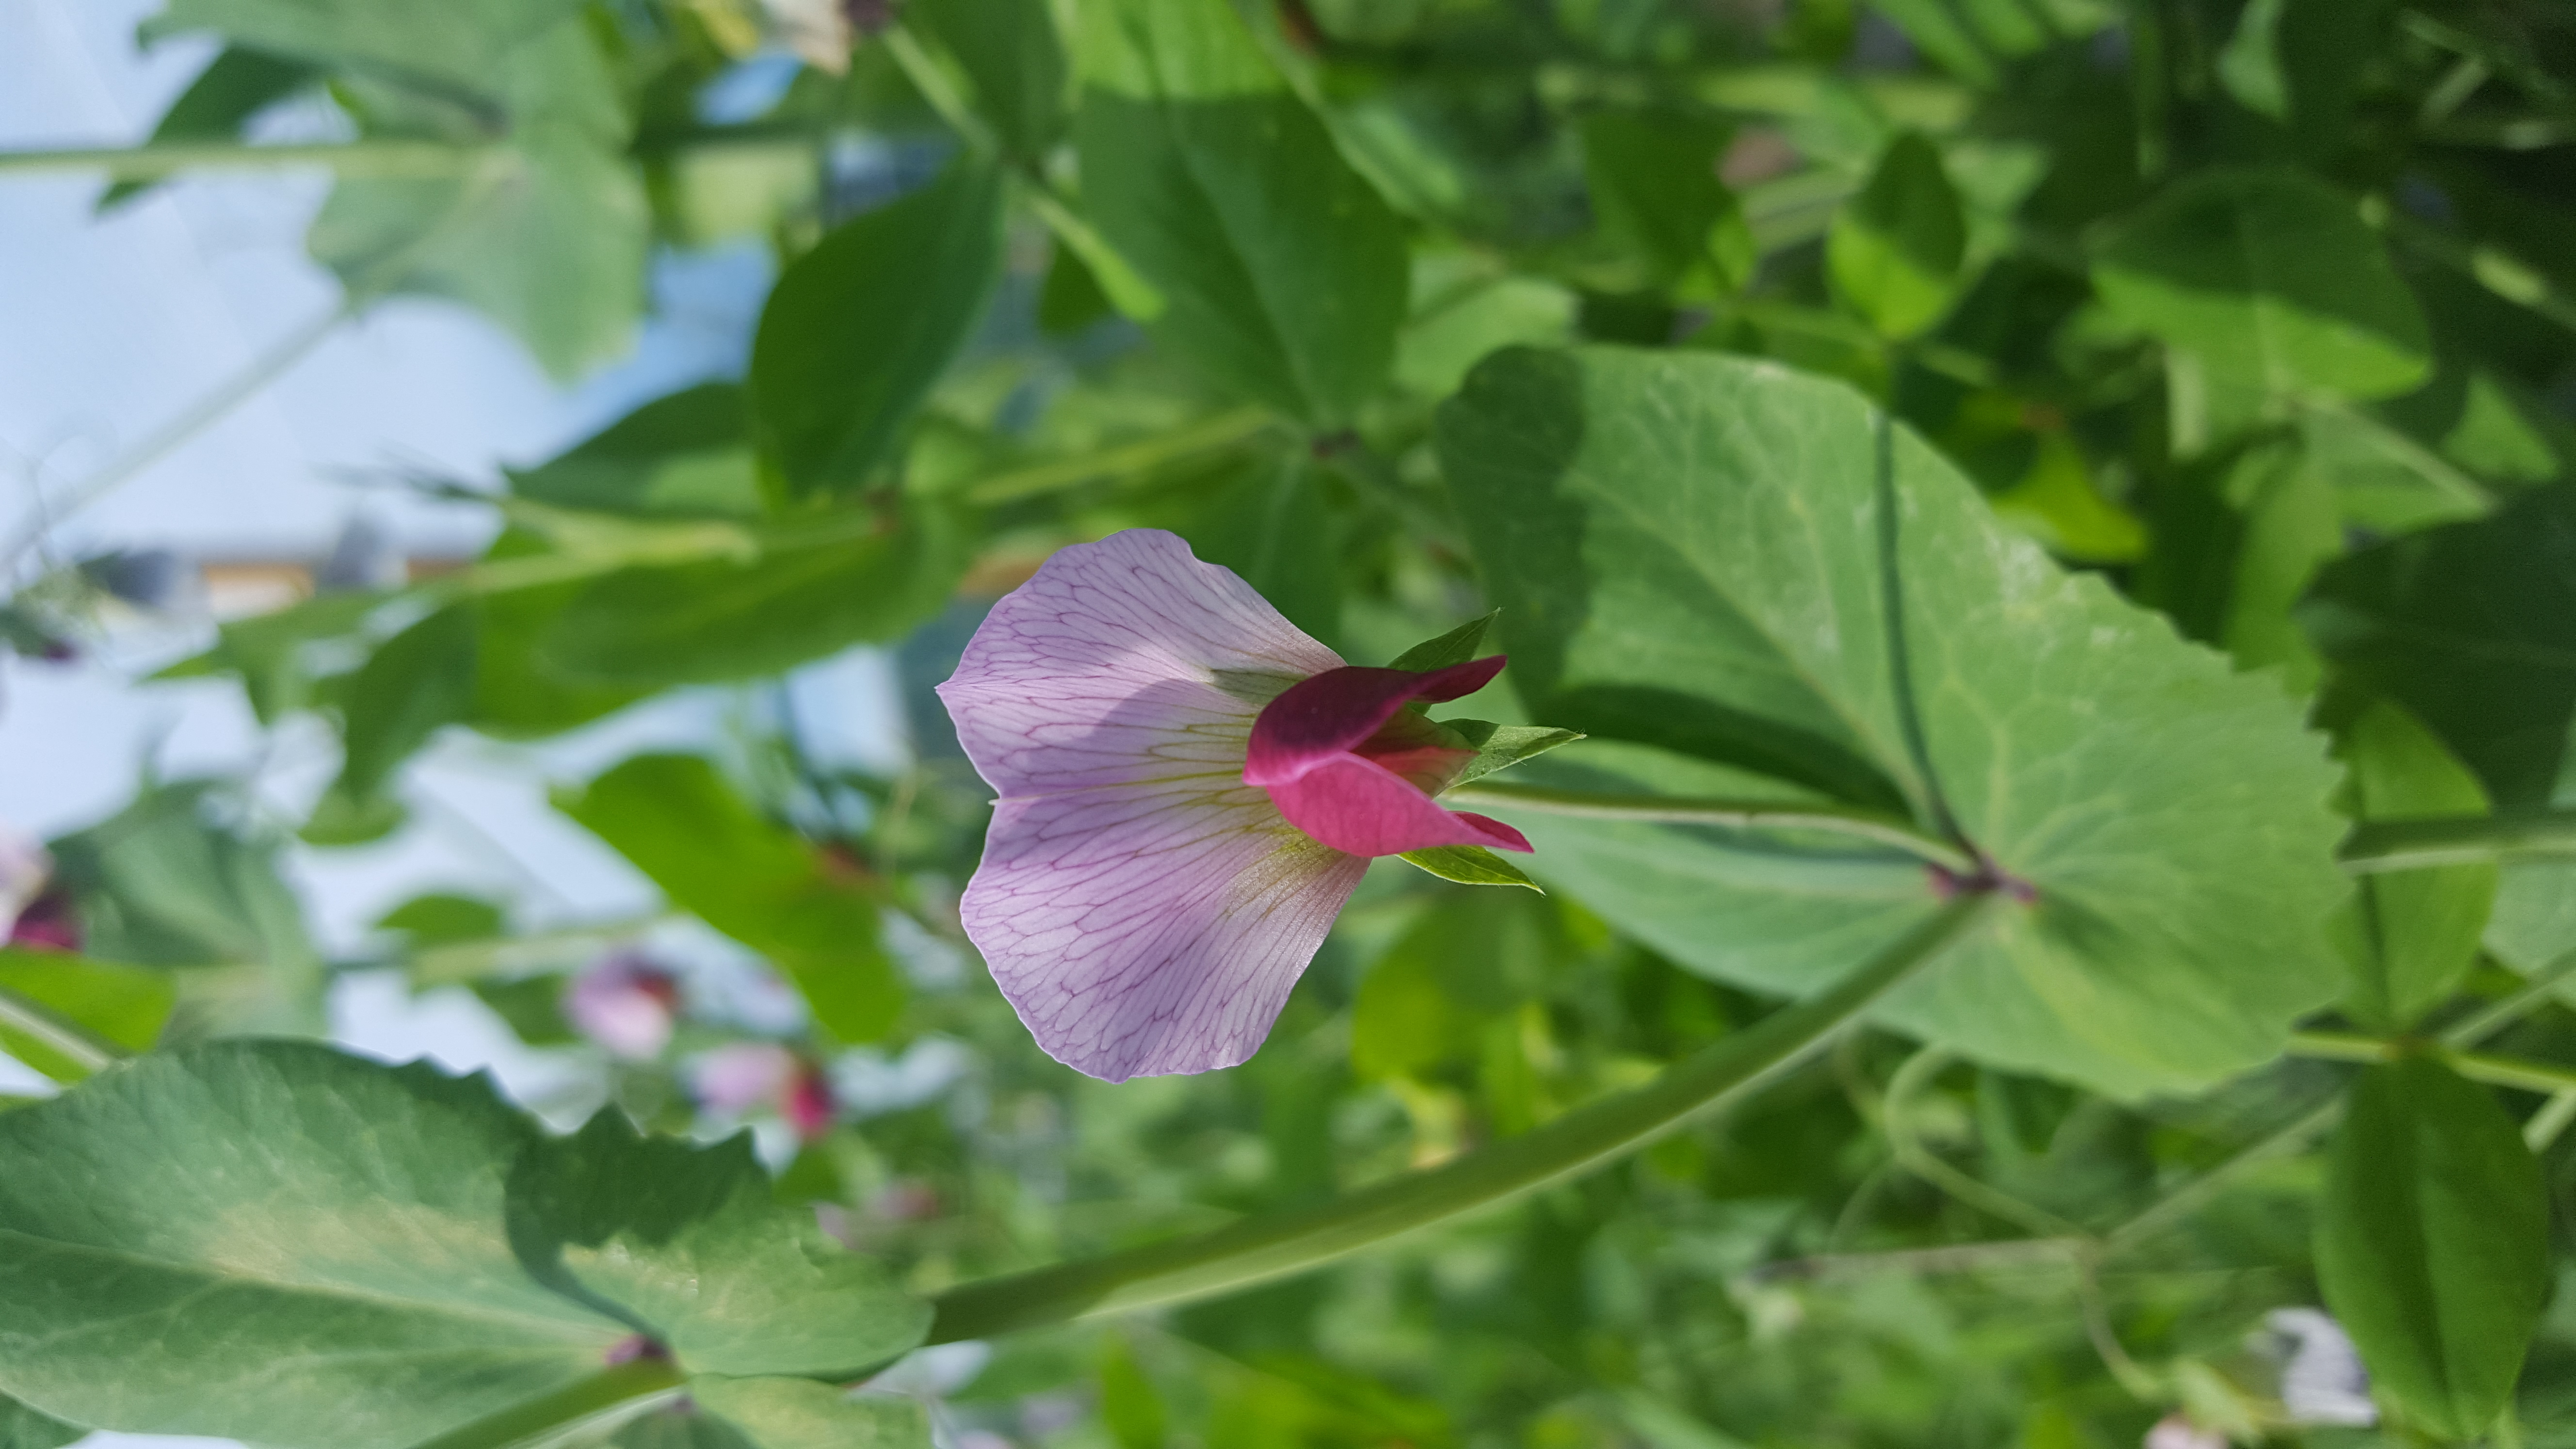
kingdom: Plantae
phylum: Tracheophyta
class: Magnoliopsida
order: Fabales
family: Fabaceae
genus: Lathyrus
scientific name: Lathyrus oleraceus
